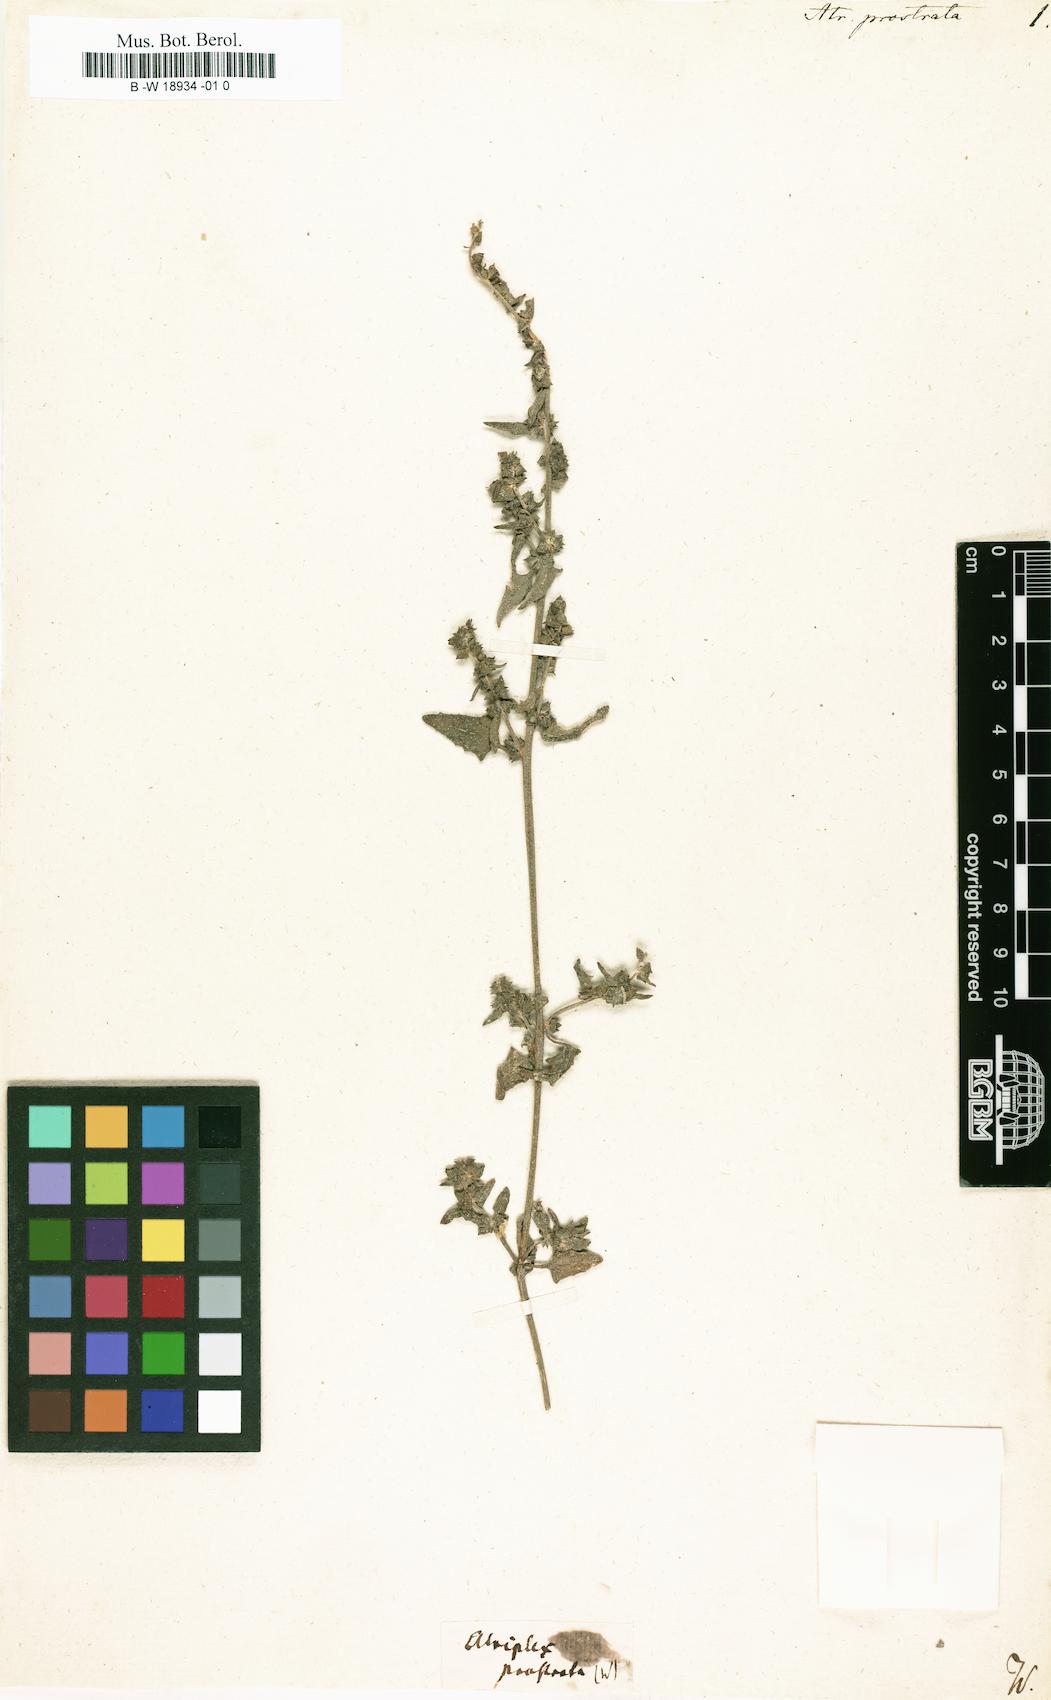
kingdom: Plantae
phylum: Tracheophyta
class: Magnoliopsida
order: Caryophyllales
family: Amaranthaceae
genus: Atriplex
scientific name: Atriplex prostrata
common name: Spear-leaved orache
